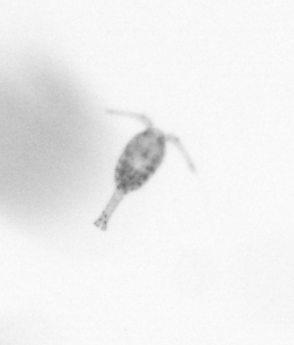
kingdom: Animalia
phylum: Arthropoda
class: Copepoda
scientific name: Copepoda
